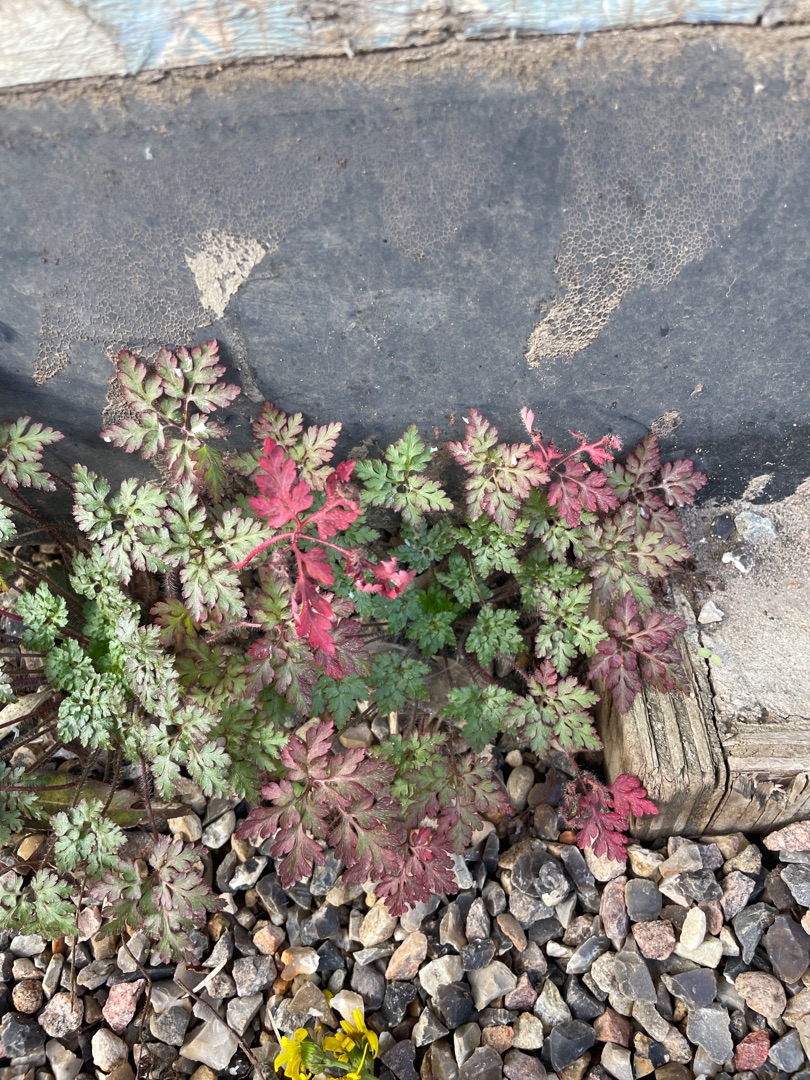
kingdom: Plantae
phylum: Tracheophyta
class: Magnoliopsida
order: Geraniales
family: Geraniaceae
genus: Geranium
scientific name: Geranium robertianum
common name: Stinkende storkenæb
